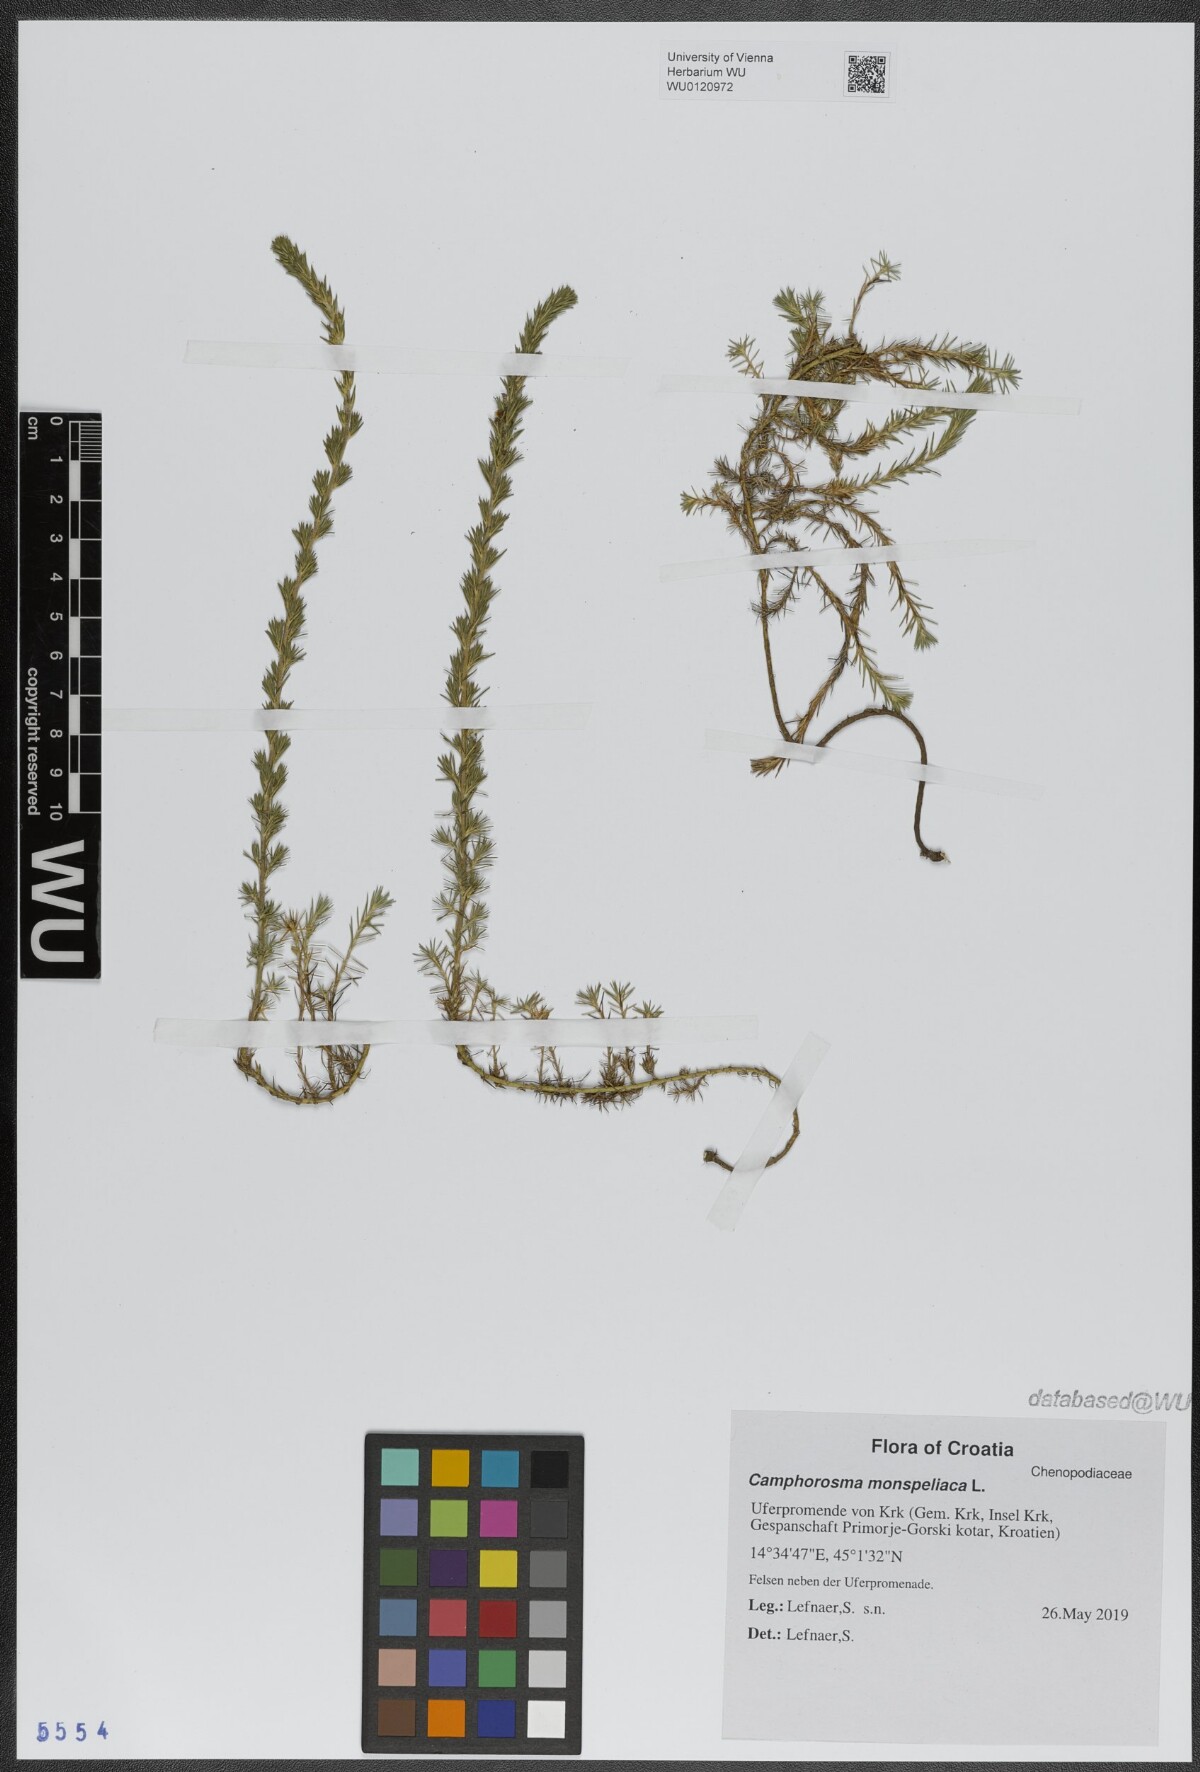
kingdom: Plantae
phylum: Tracheophyta
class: Magnoliopsida
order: Caryophyllales
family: Amaranthaceae
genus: Camphorosma
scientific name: Camphorosma monspeliaca
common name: Camphorfume
